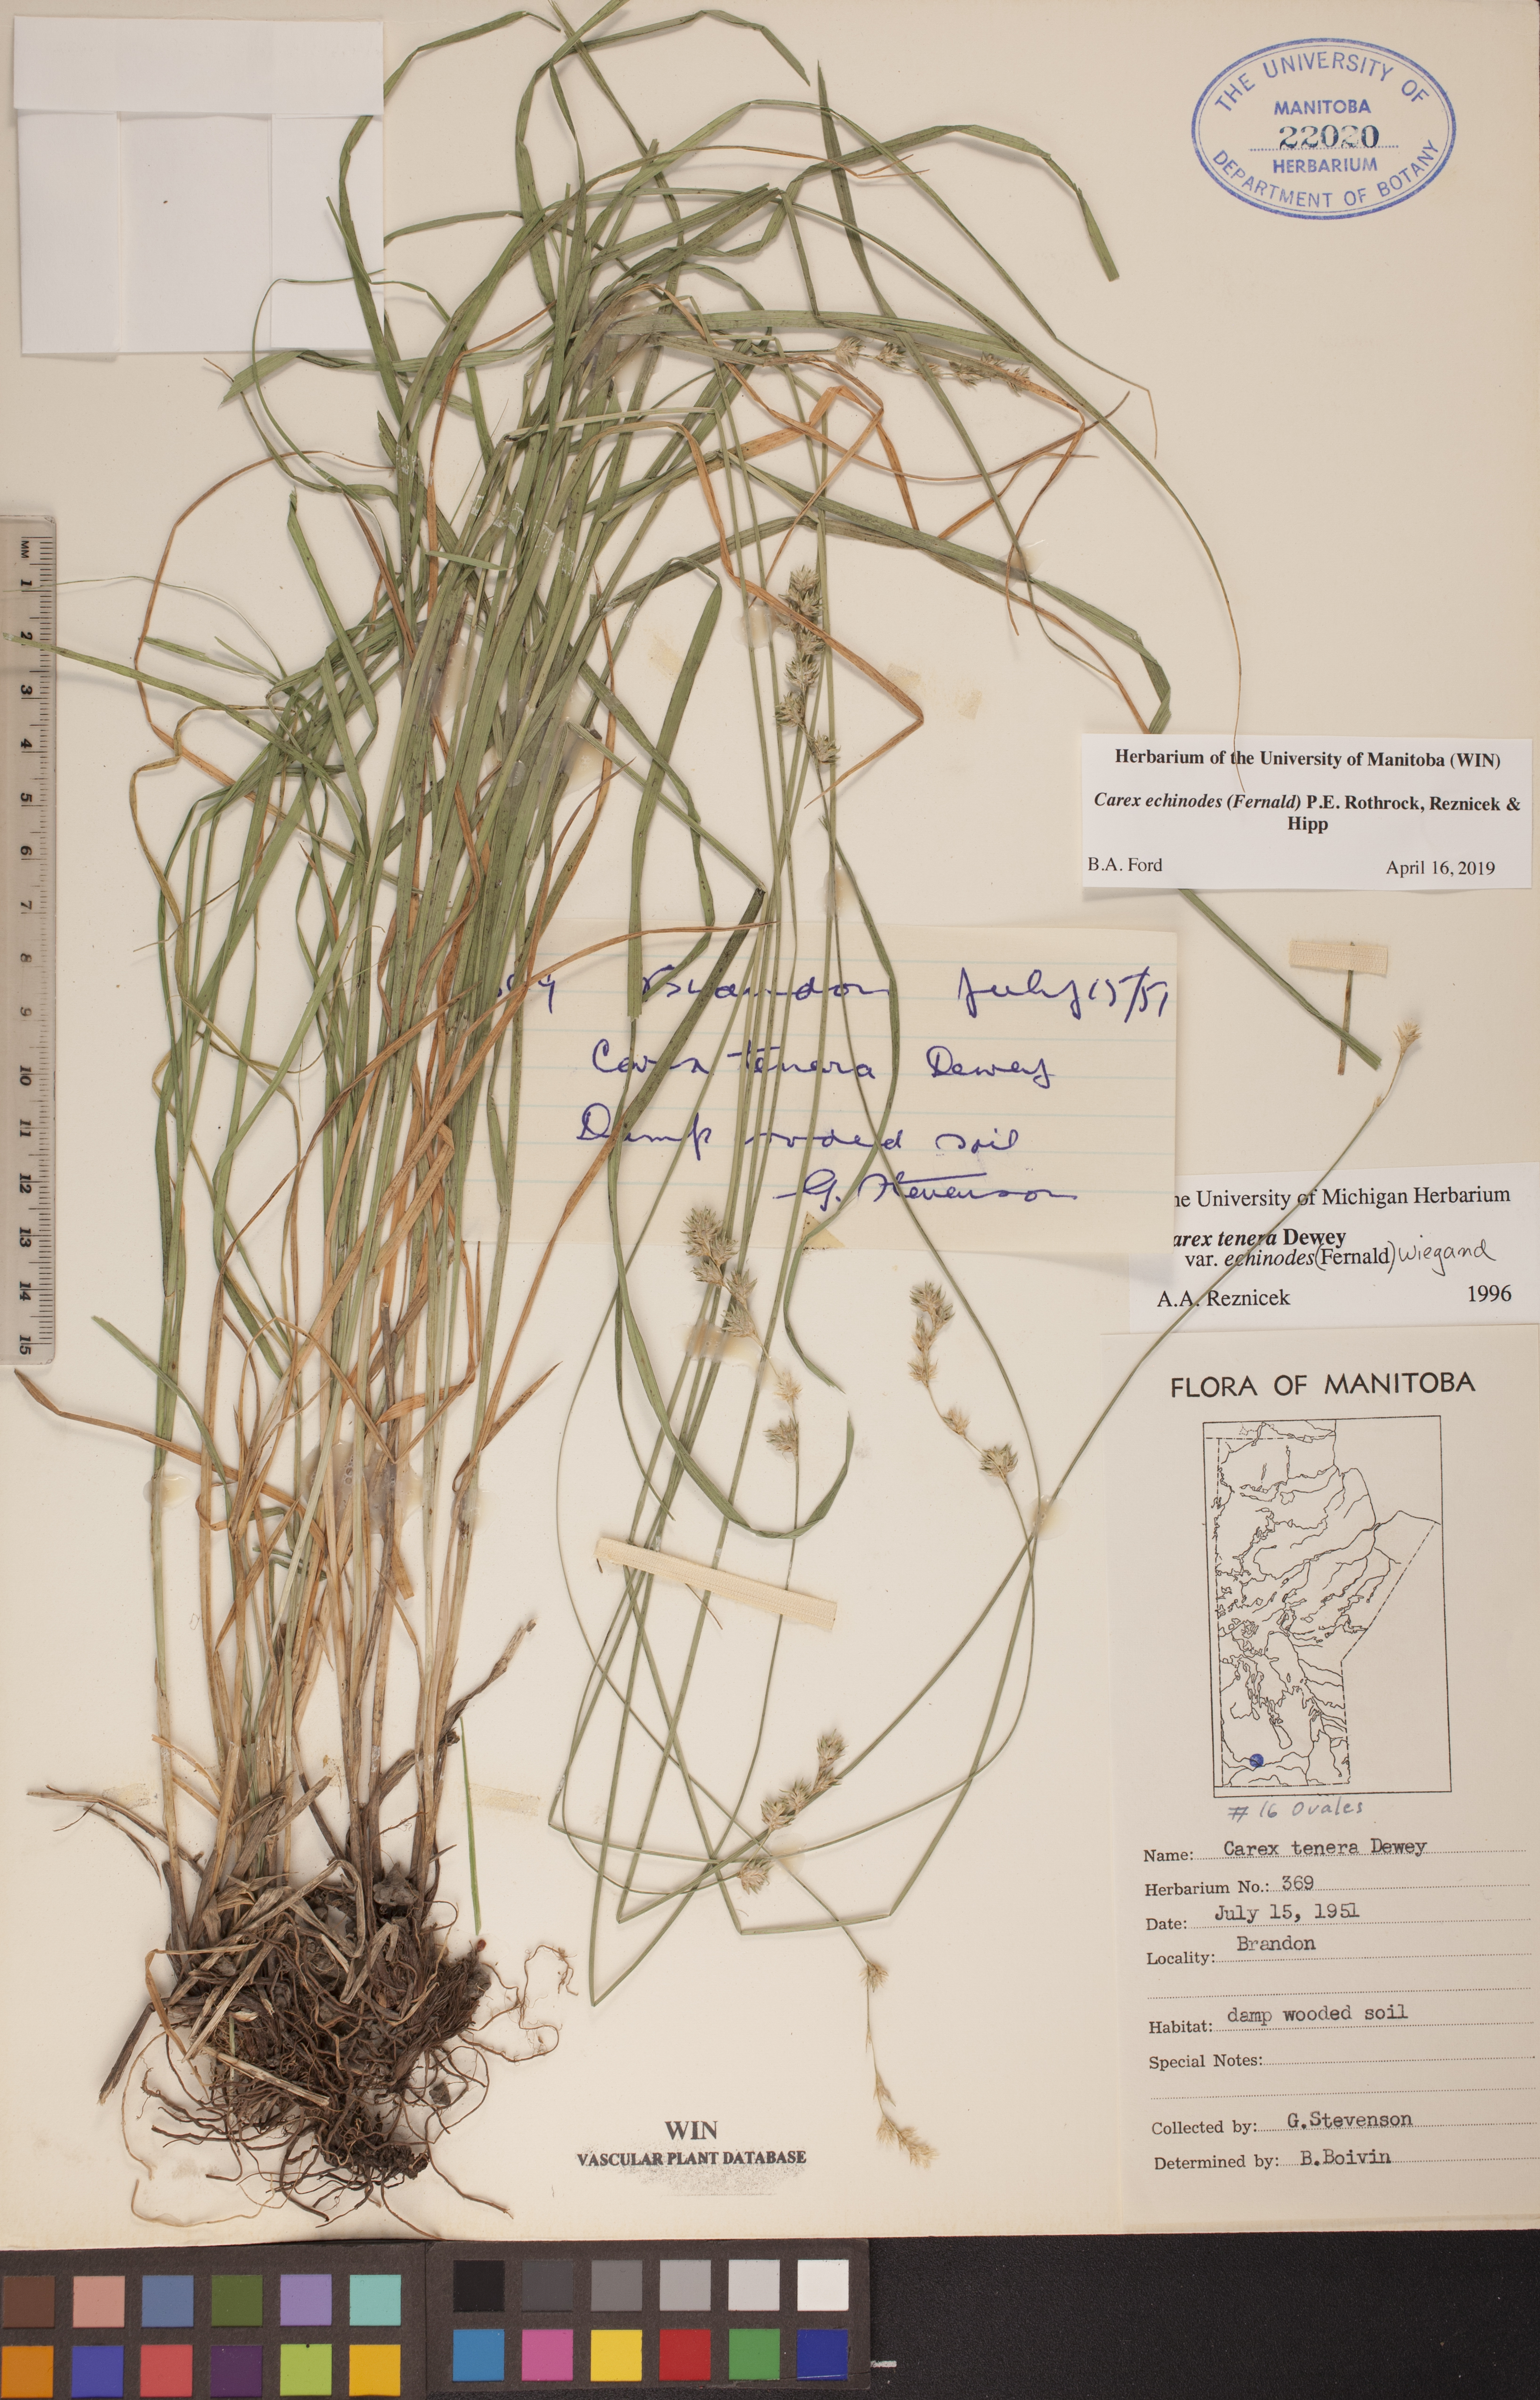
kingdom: Plantae
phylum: Tracheophyta
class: Liliopsida
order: Poales
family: Cyperaceae
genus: Carex
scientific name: Carex echinodes
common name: Marsh straw sedge
